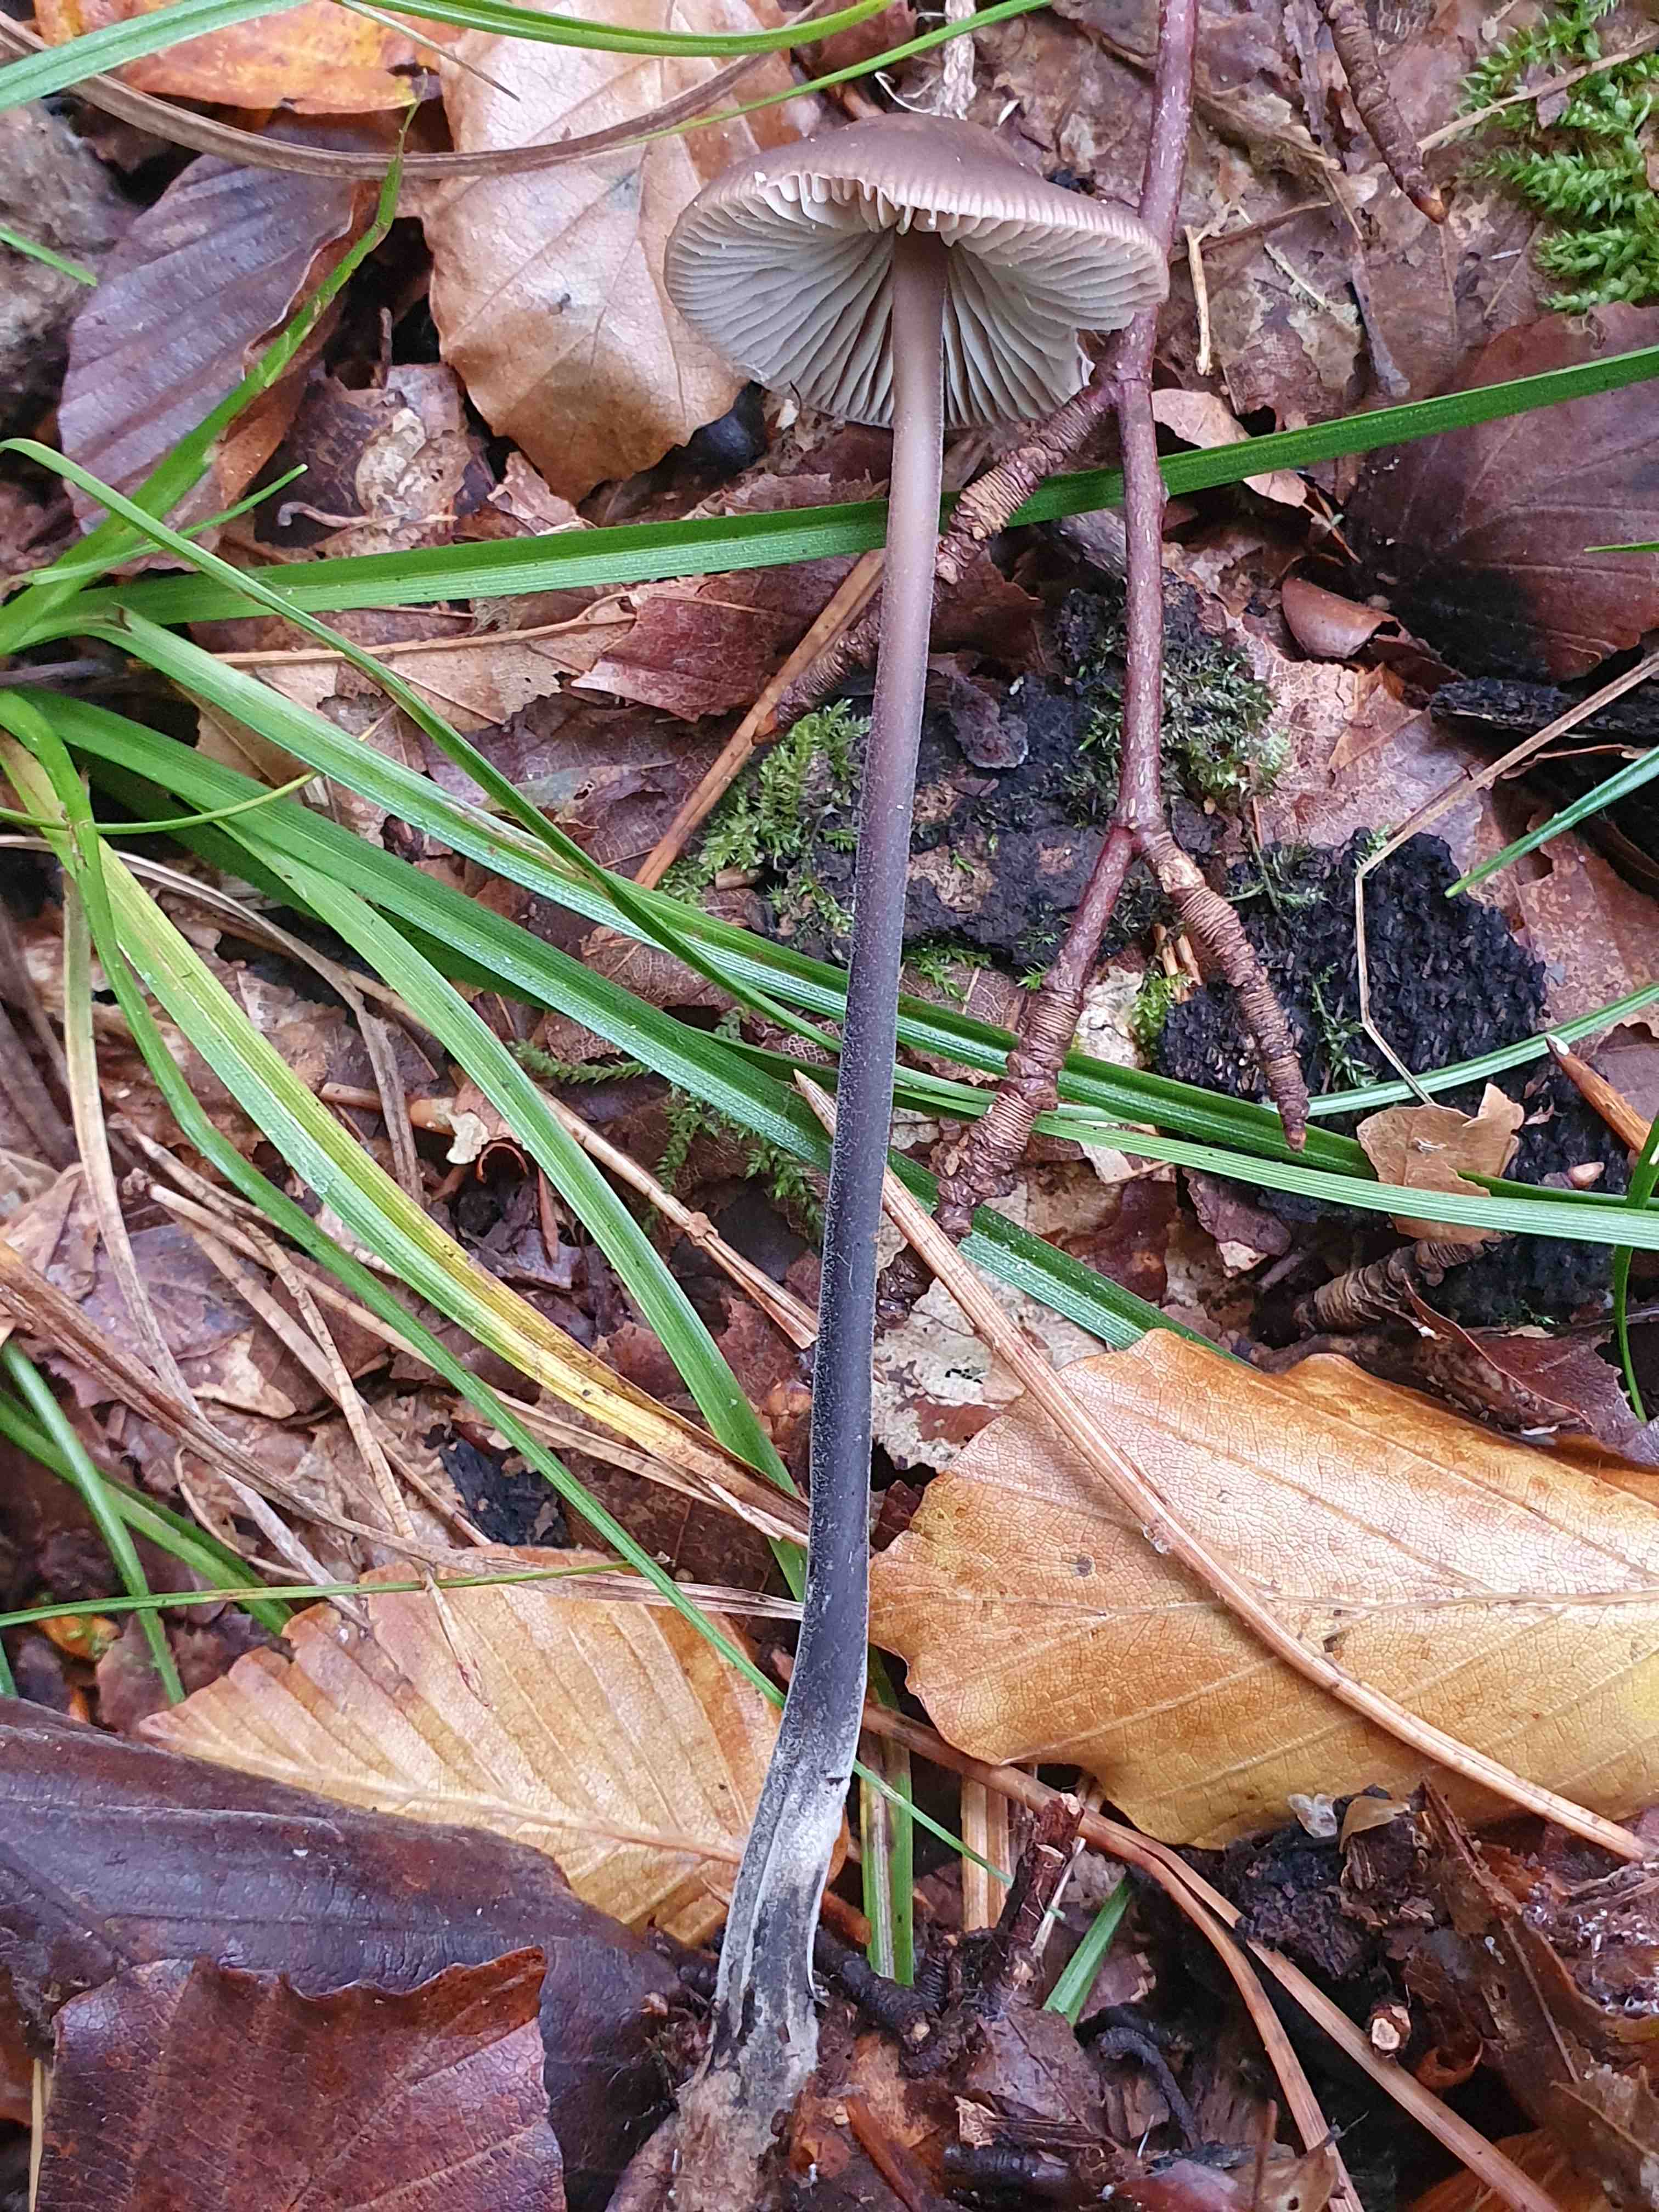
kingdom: Fungi
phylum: Basidiomycota
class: Agaricomycetes
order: Agaricales
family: Omphalotaceae
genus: Mycetinis
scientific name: Mycetinis alliaceus
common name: stor løghat
